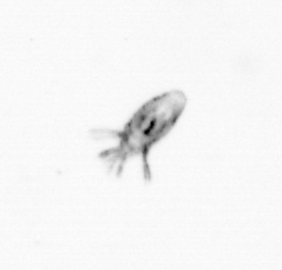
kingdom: Animalia
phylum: Arthropoda
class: Copepoda
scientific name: Copepoda
